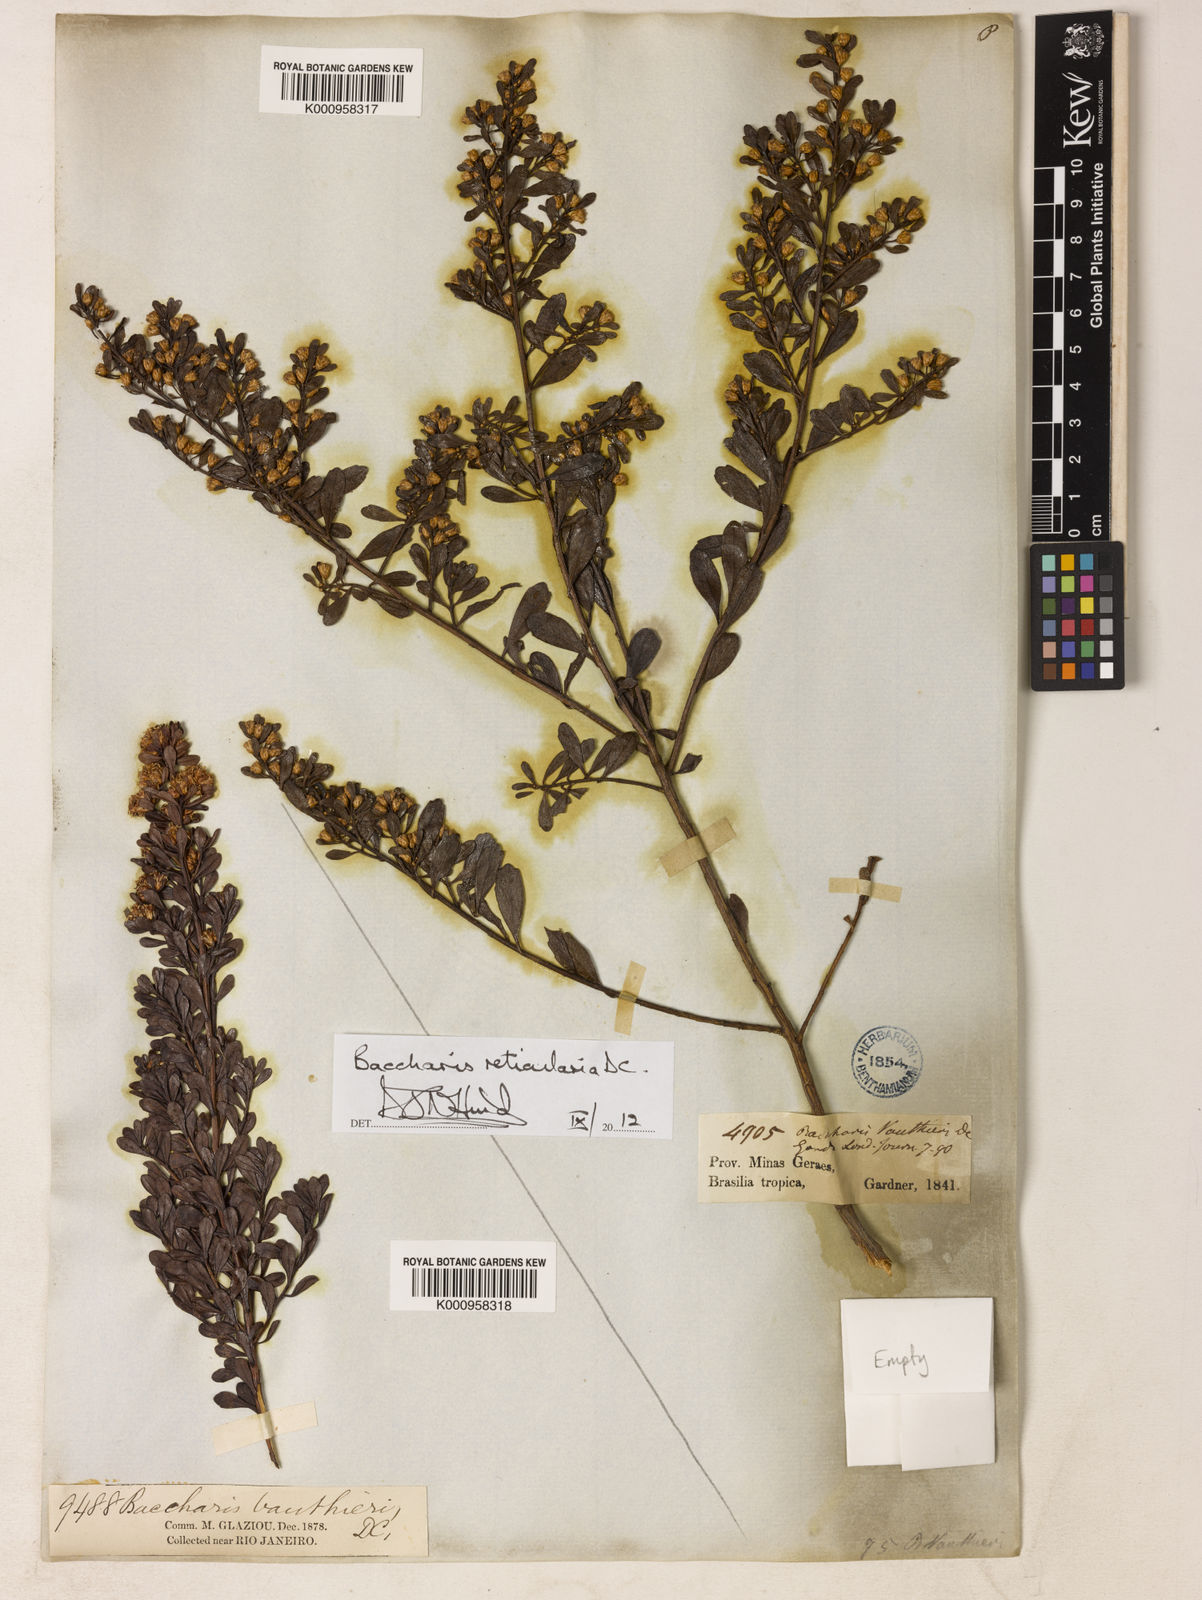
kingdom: Plantae
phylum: Tracheophyta
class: Magnoliopsida
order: Asterales
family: Asteraceae
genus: Baccharis
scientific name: Baccharis reticularia
